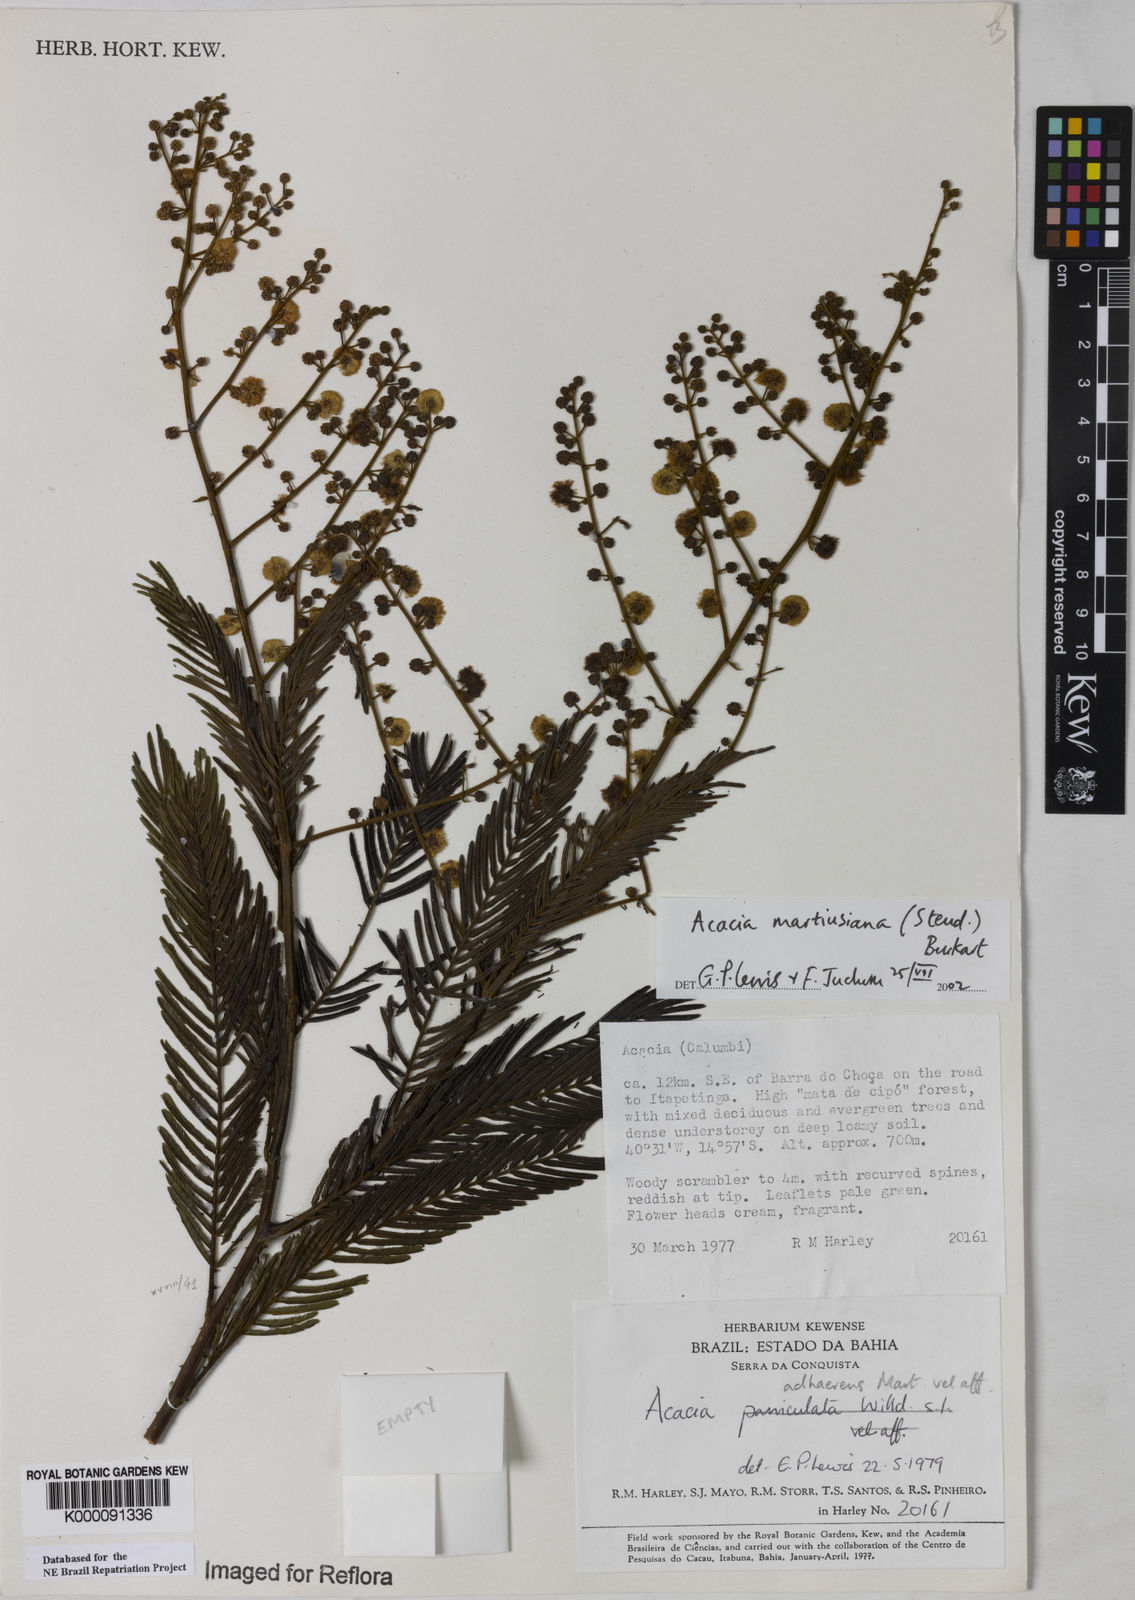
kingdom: Plantae
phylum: Tracheophyta
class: Magnoliopsida
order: Fabales
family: Fabaceae
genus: Senegalia
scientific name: Senegalia martiusiana
